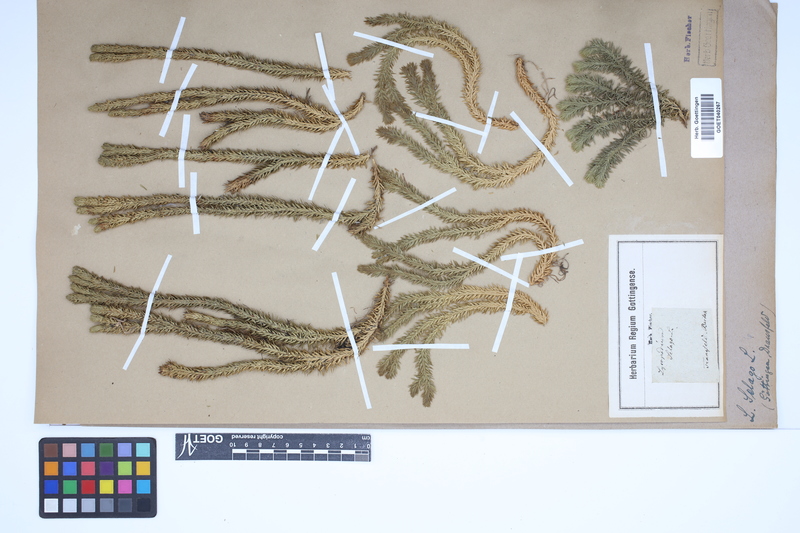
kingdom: Plantae
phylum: Tracheophyta
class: Lycopodiopsida
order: Lycopodiales
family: Lycopodiaceae
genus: Huperzia
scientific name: Huperzia selago
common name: Northern firmoss
